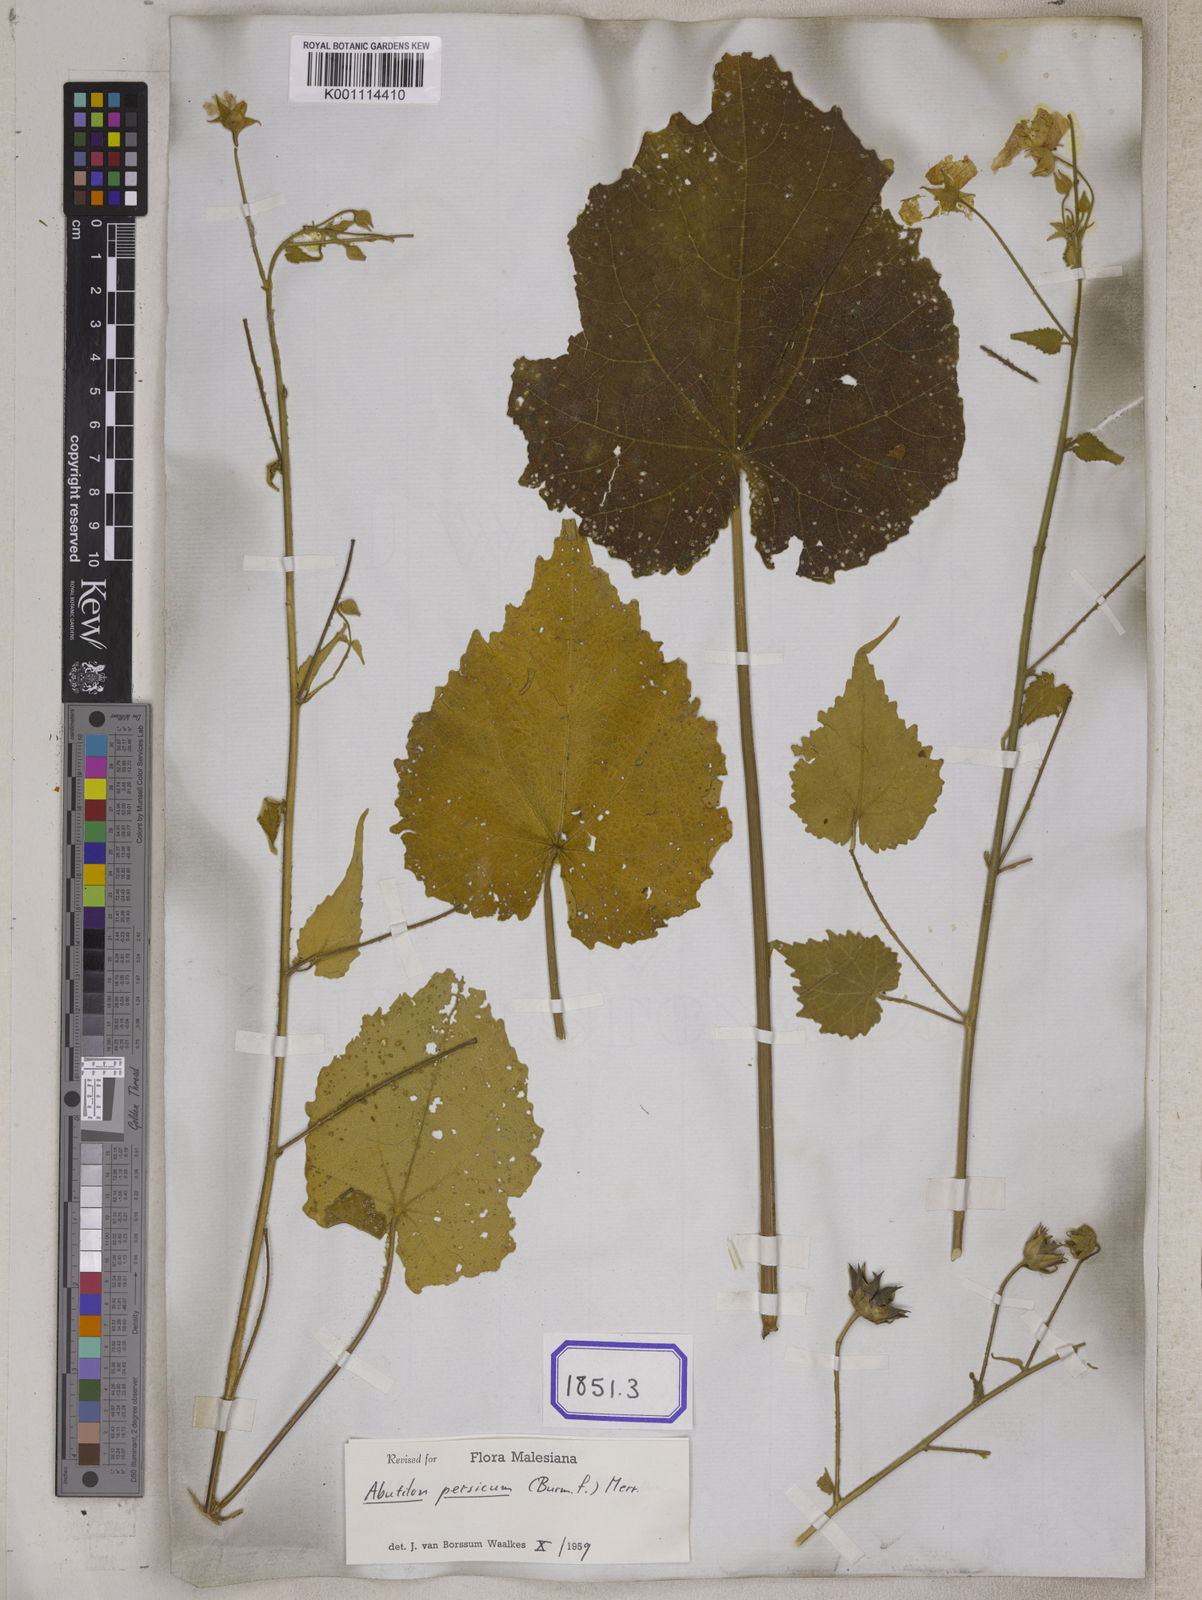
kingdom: Plantae
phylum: Tracheophyta
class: Magnoliopsida
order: Malvales
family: Malvaceae
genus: Abutilon
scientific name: Abutilon persicum
